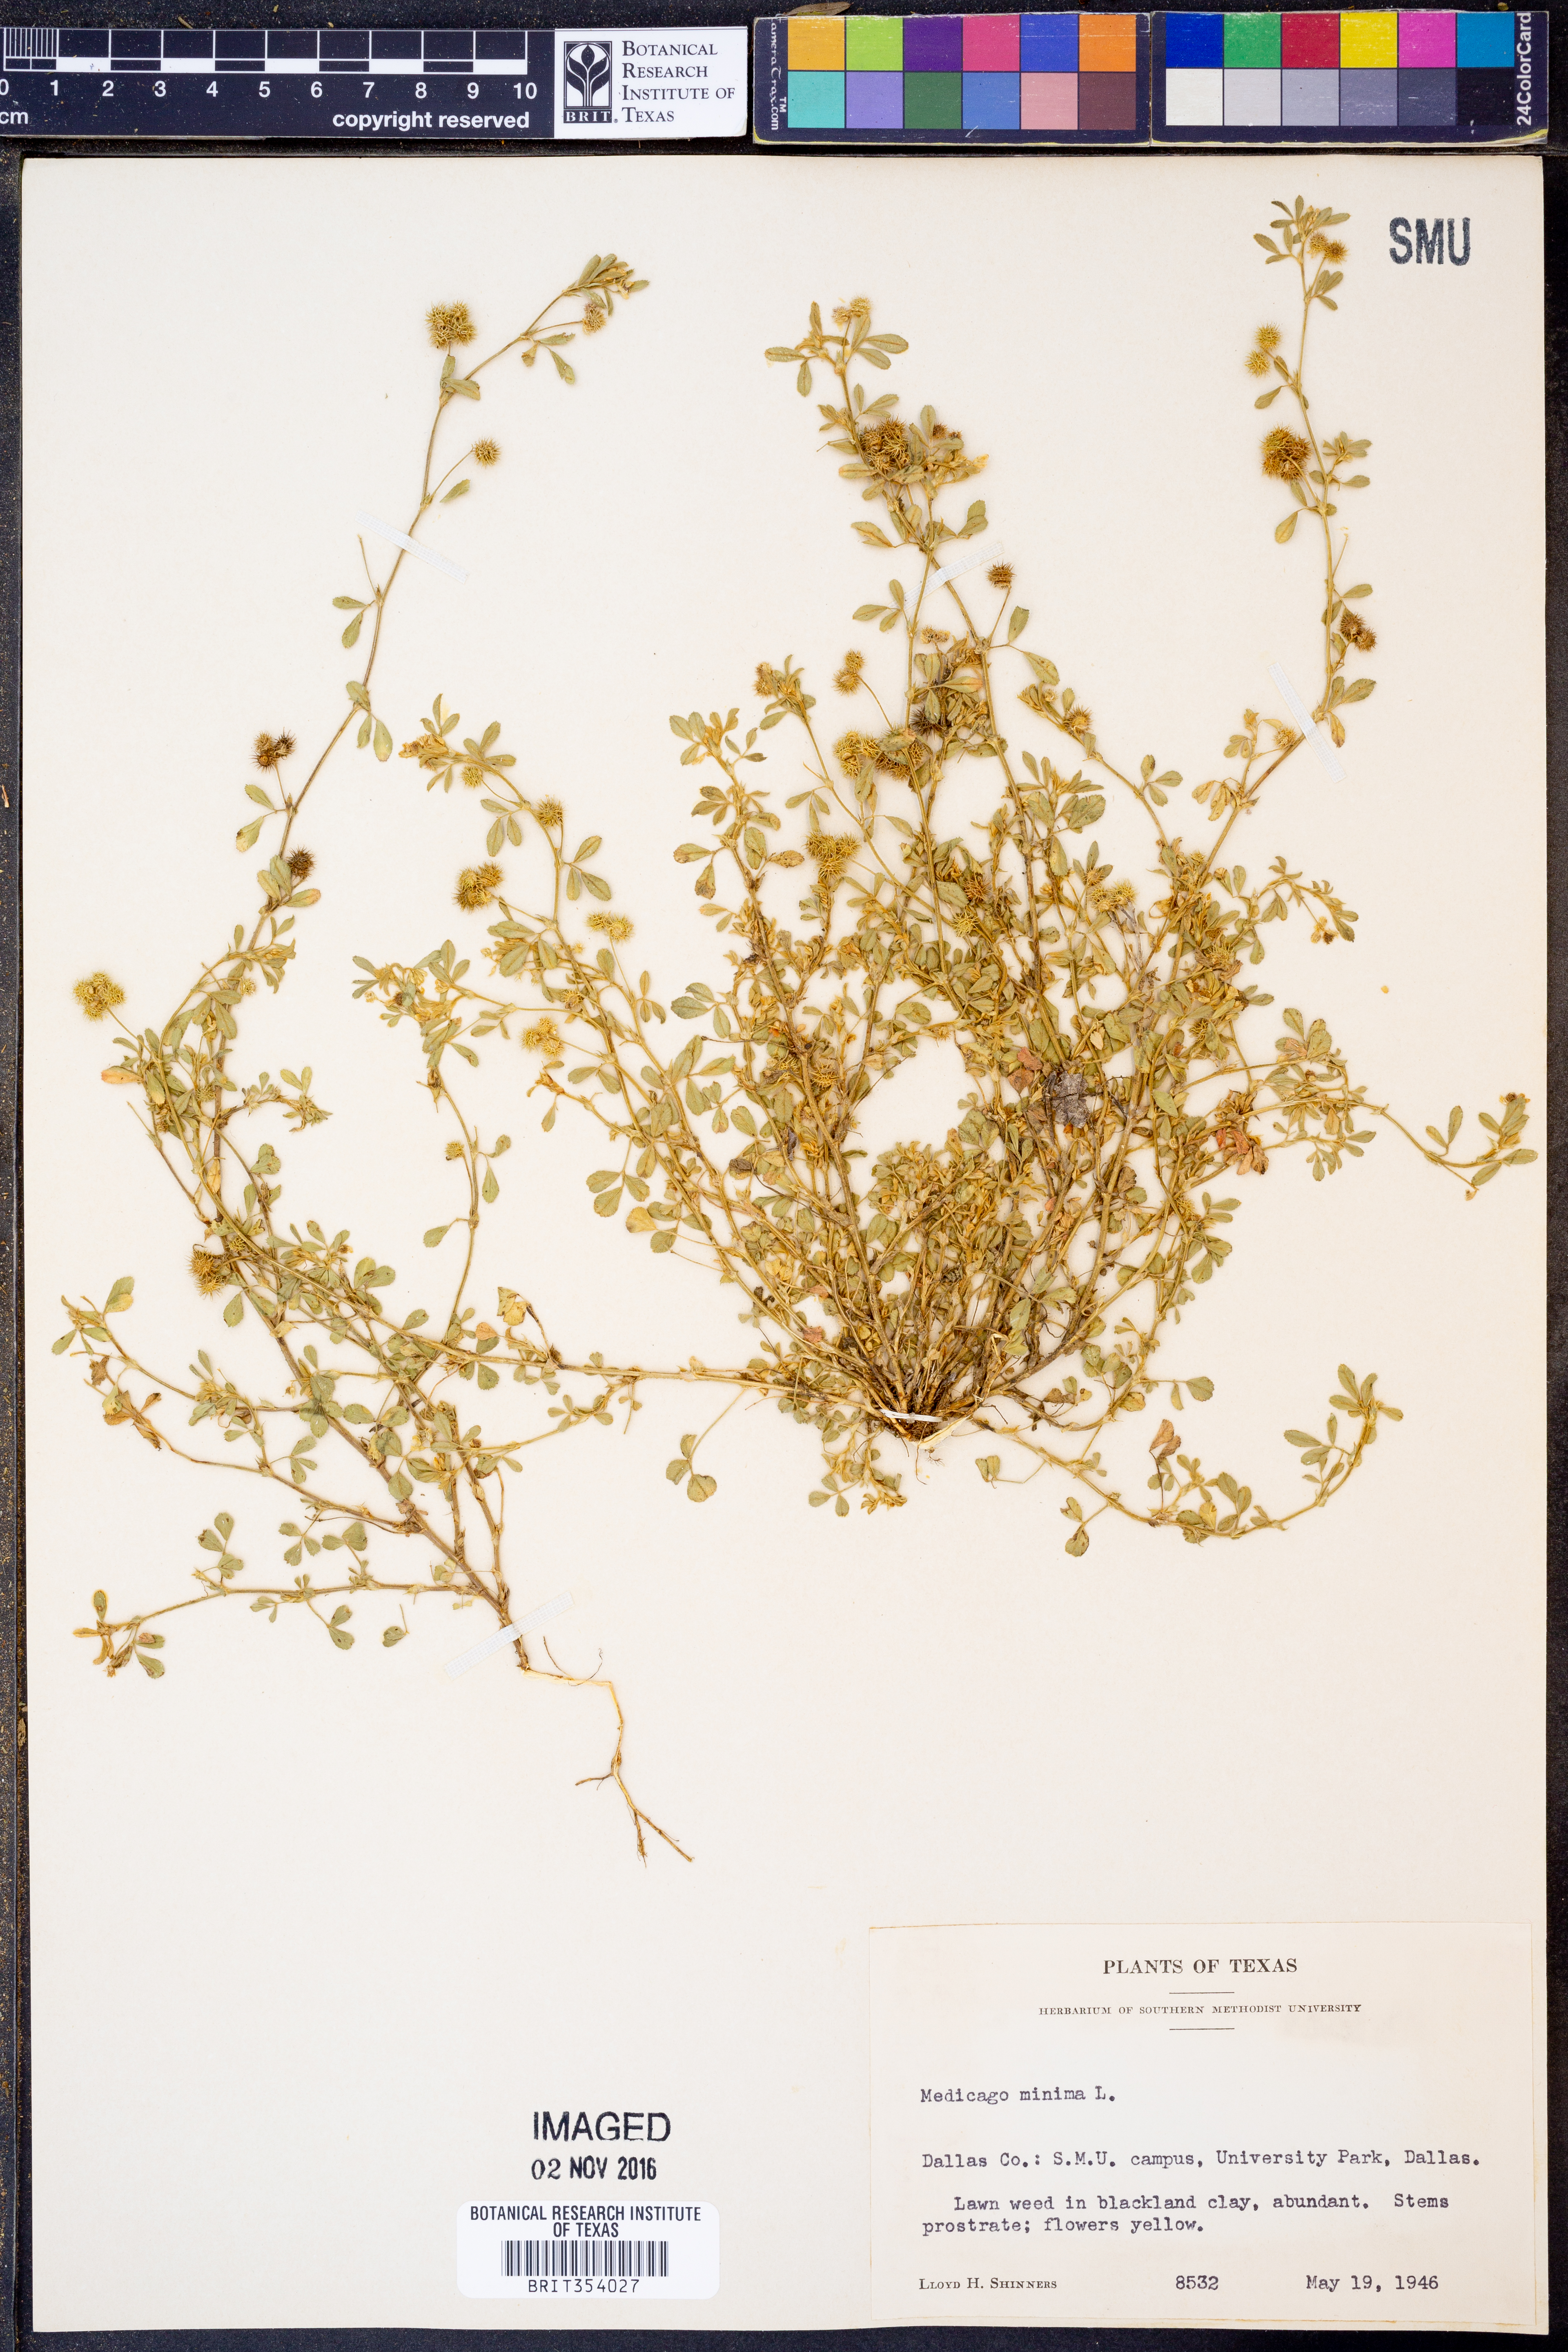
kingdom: Plantae
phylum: Tracheophyta
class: Magnoliopsida
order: Fabales
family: Fabaceae
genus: Medicago
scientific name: Medicago minima
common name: Little bur-clover
